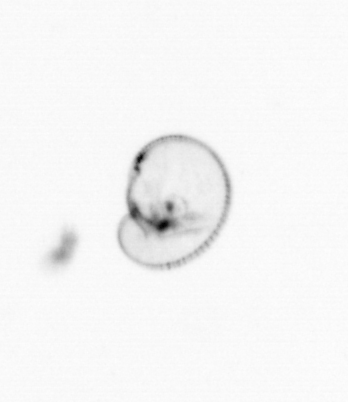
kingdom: Chromista
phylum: Myzozoa
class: Dinophyceae
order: Noctilucales
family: Noctilucaceae
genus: Noctiluca
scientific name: Noctiluca scintillans
